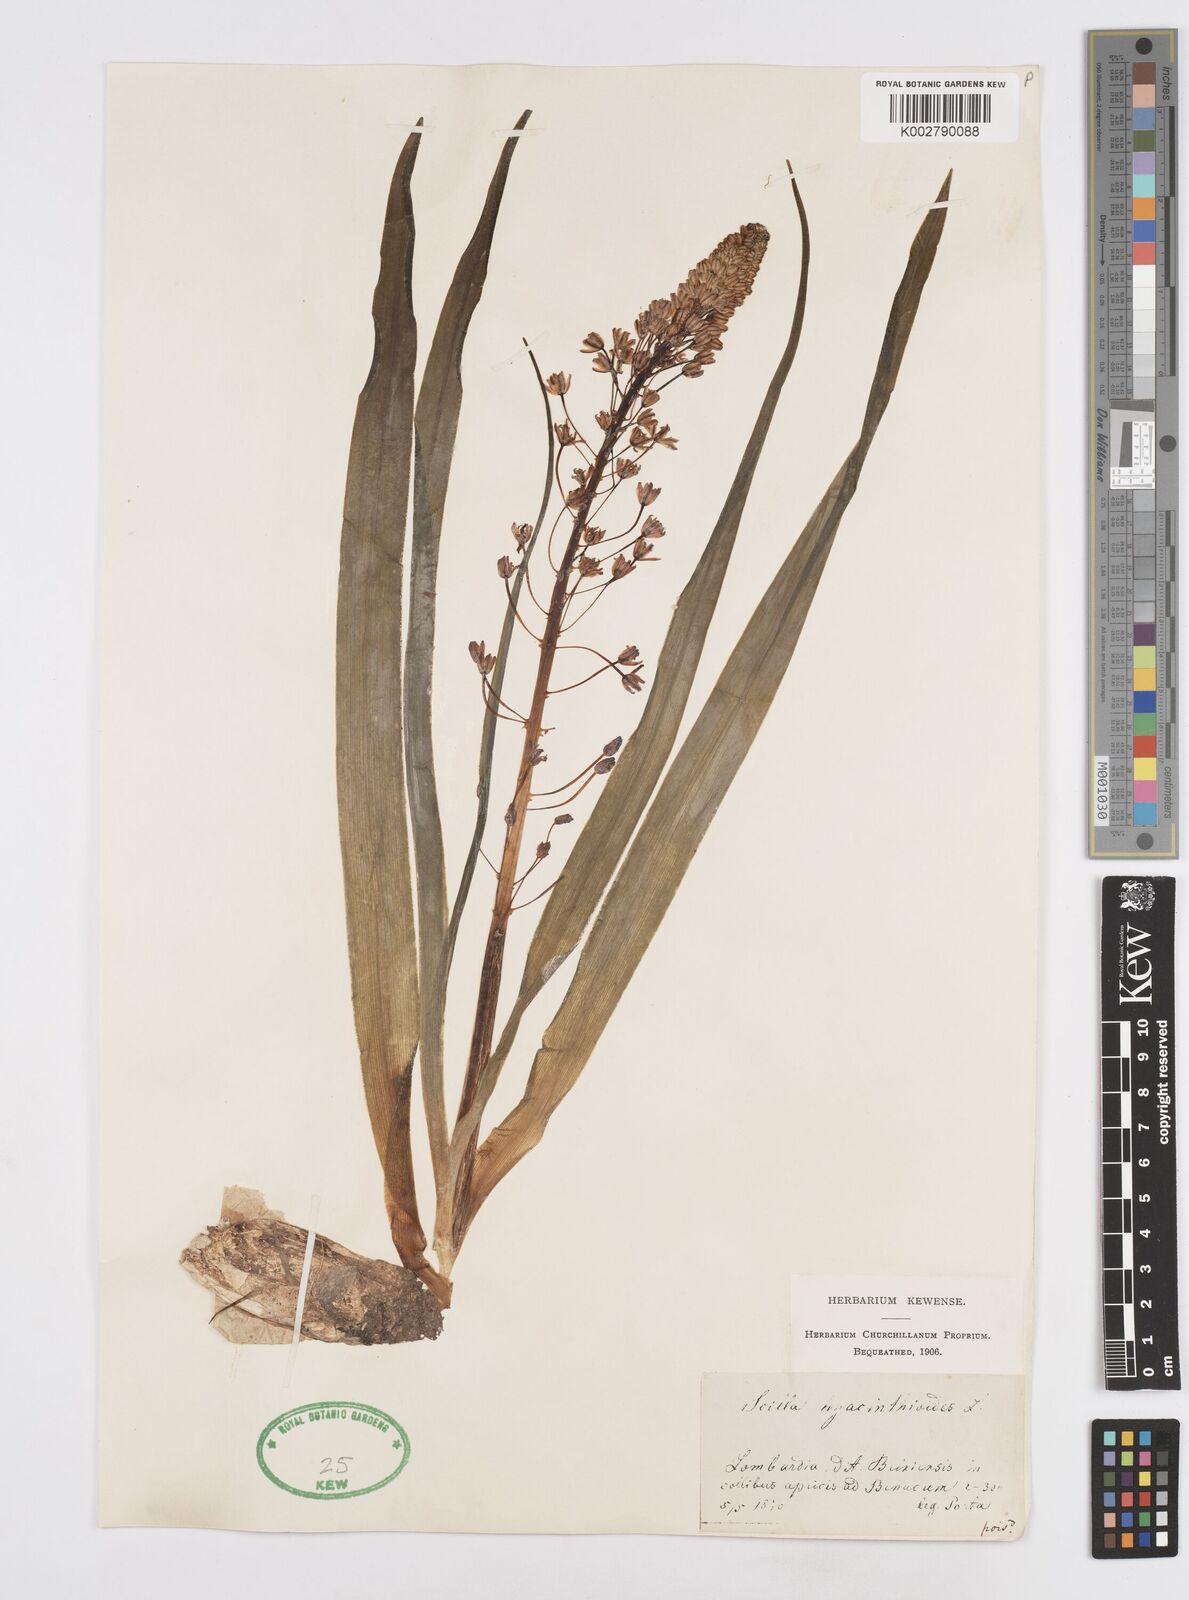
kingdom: Plantae
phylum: Tracheophyta
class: Liliopsida
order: Asparagales
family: Asparagaceae
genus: Scilla
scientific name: Scilla hyacinthoides
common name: Scilla
